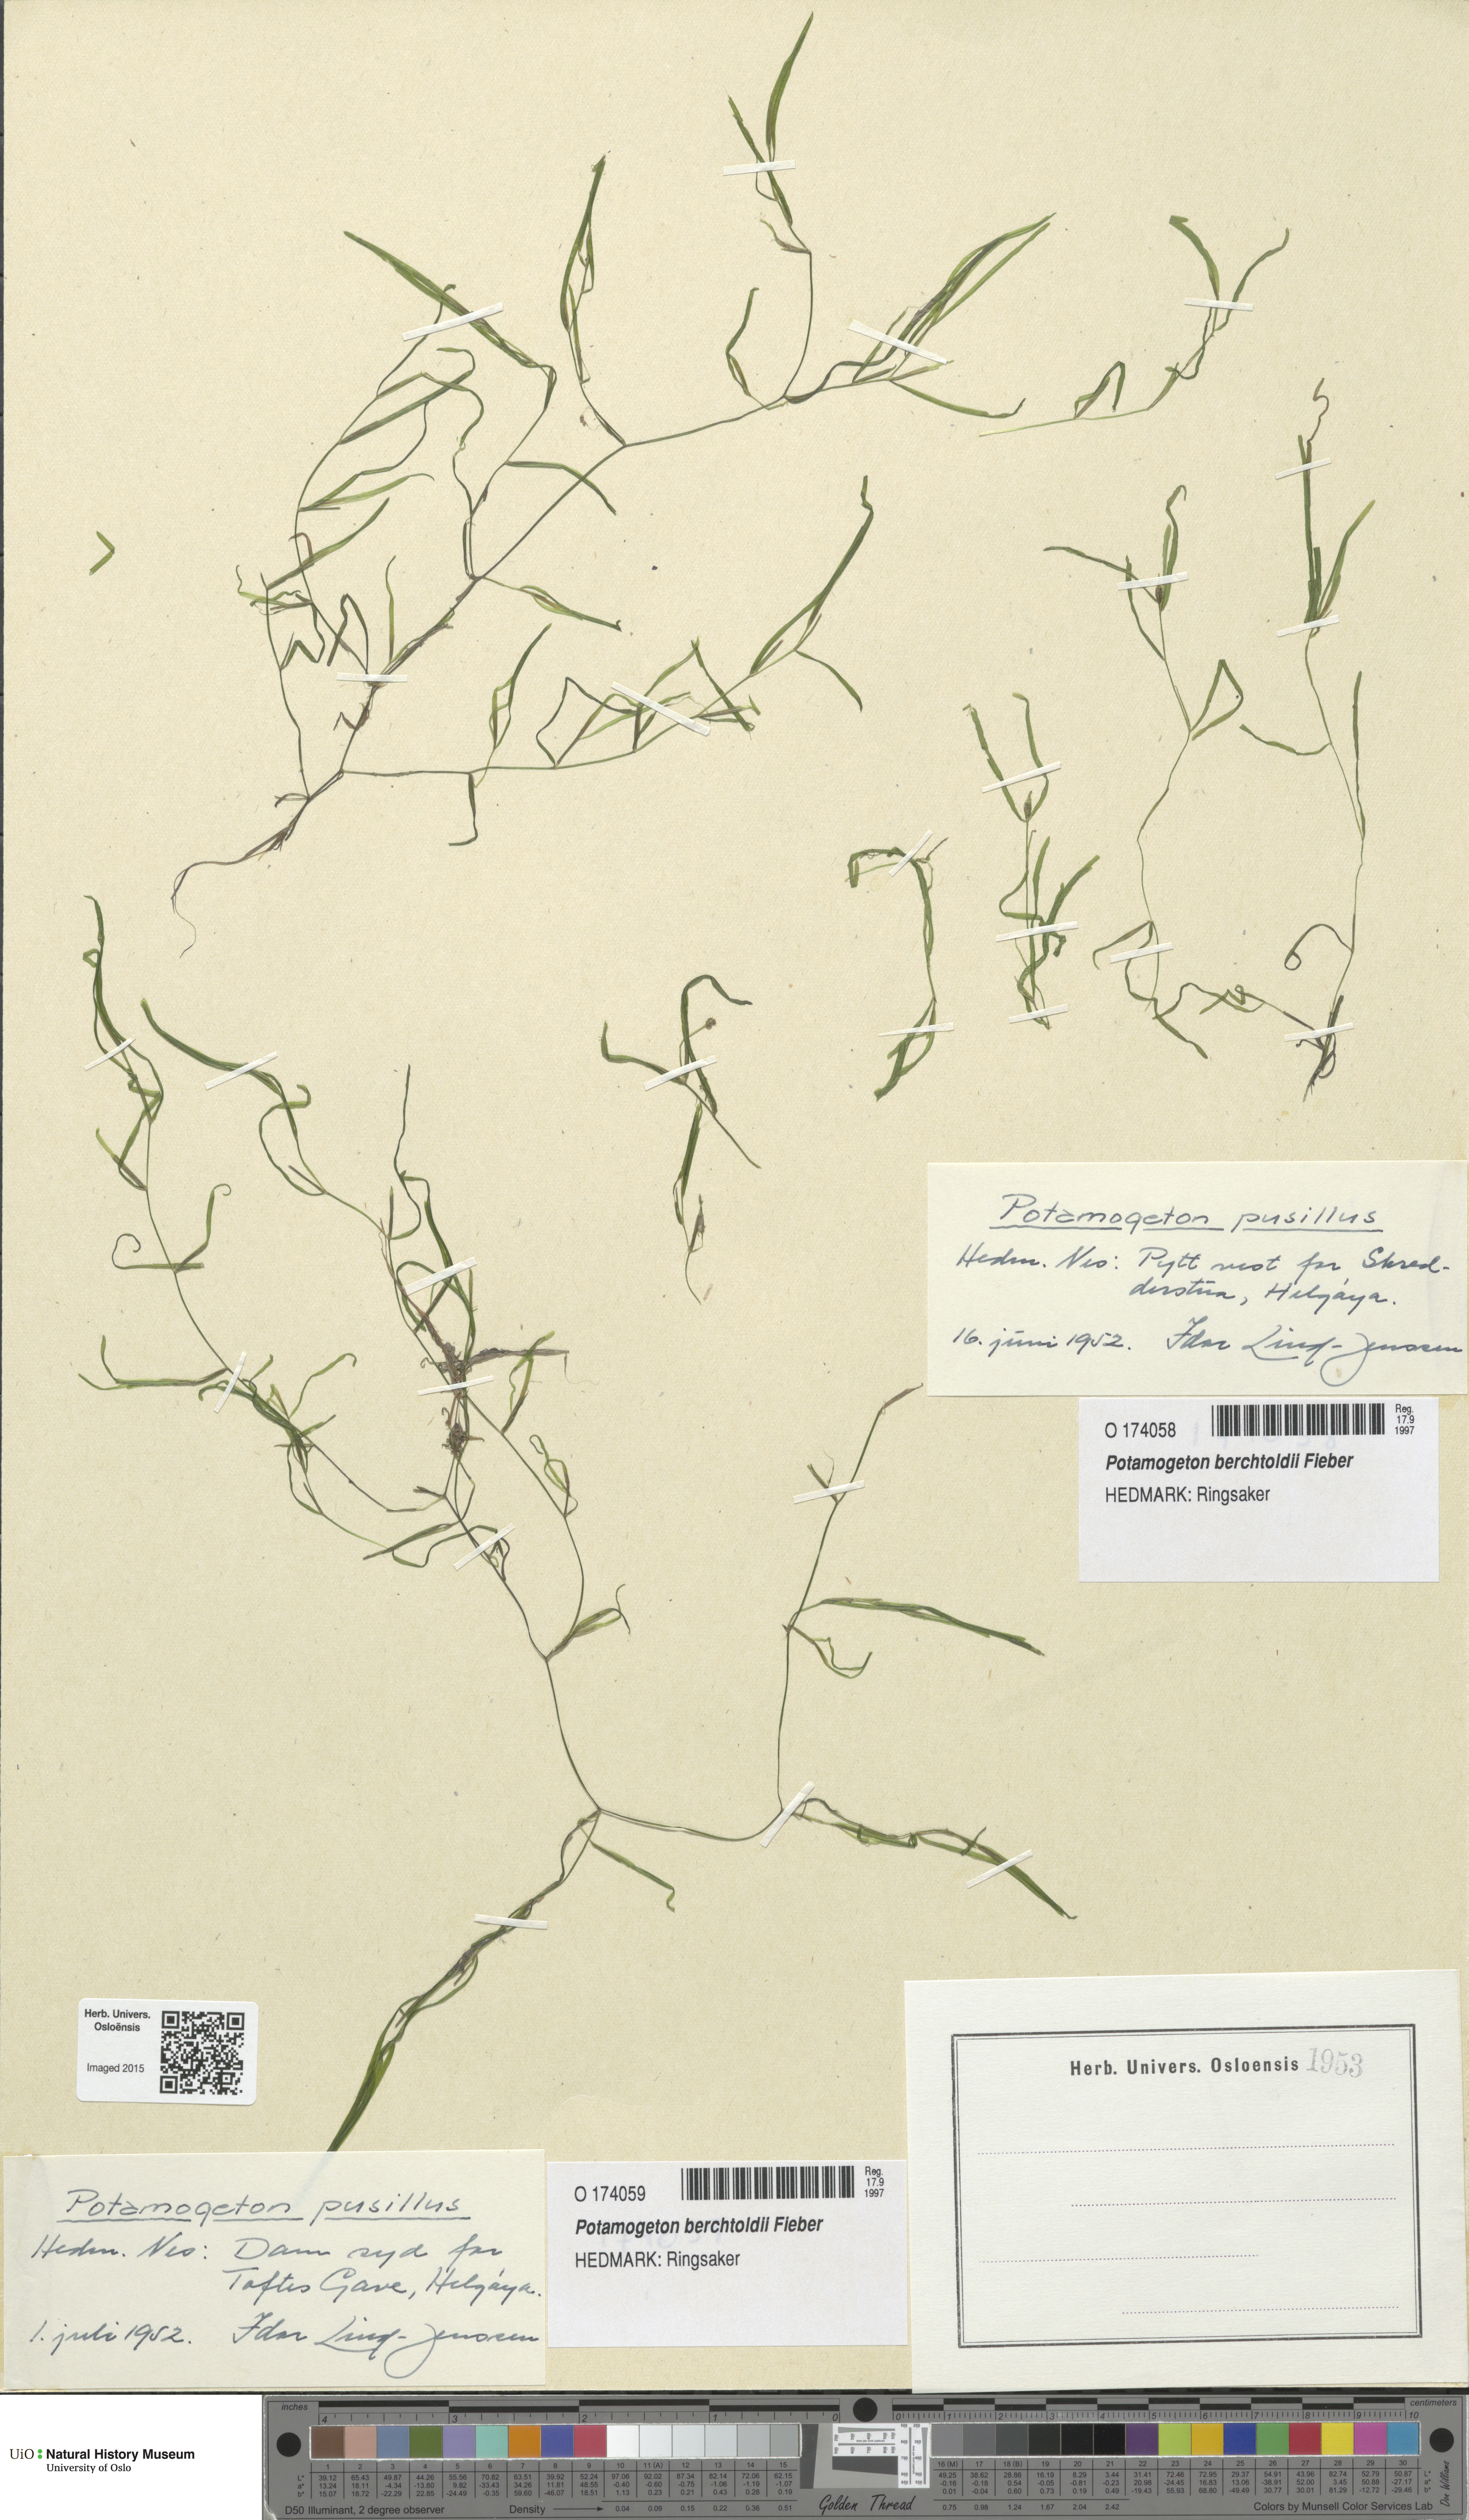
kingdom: Plantae
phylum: Tracheophyta
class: Liliopsida
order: Alismatales
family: Potamogetonaceae
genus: Potamogeton
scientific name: Potamogeton berchtoldii
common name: Small pondweed
